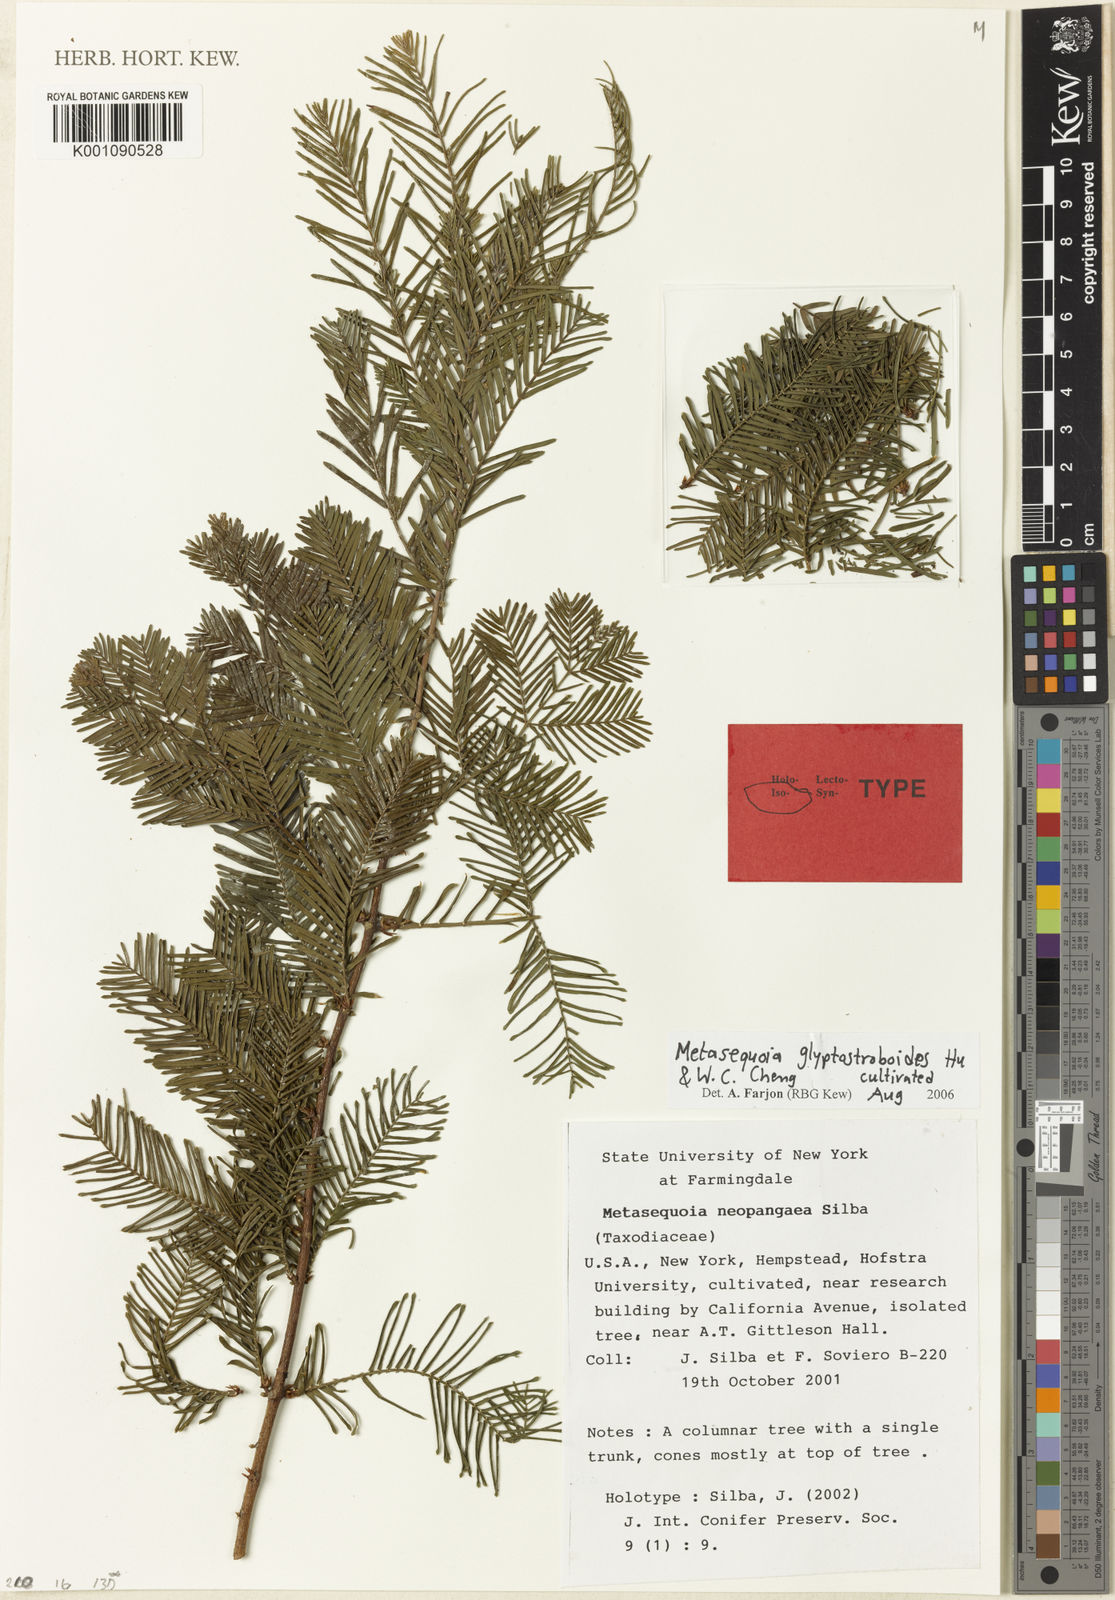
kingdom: Plantae
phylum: Tracheophyta
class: Pinopsida
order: Pinales
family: Cupressaceae
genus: Metasequoia
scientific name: Metasequoia glyptostroboides
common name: Dawn redwood
